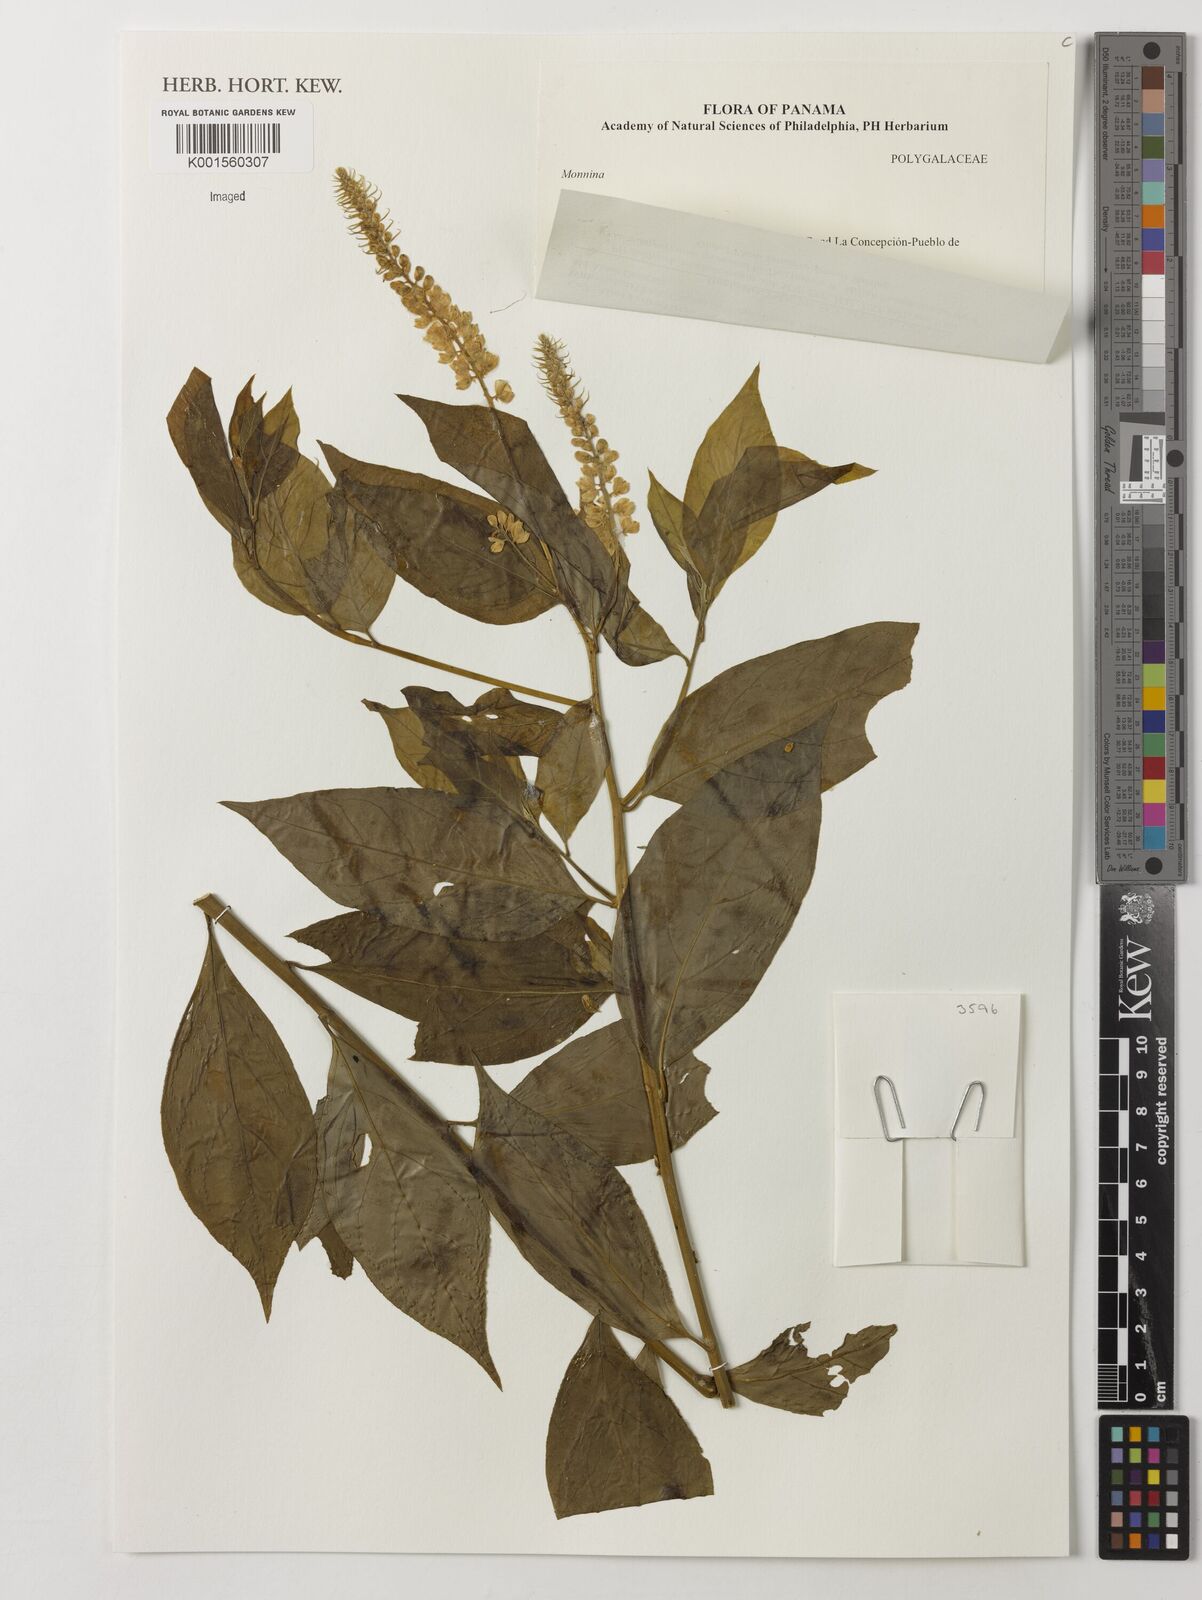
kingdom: Plantae
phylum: Tracheophyta
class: Magnoliopsida
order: Fabales
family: Polygalaceae
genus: Monnina
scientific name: Monnina
